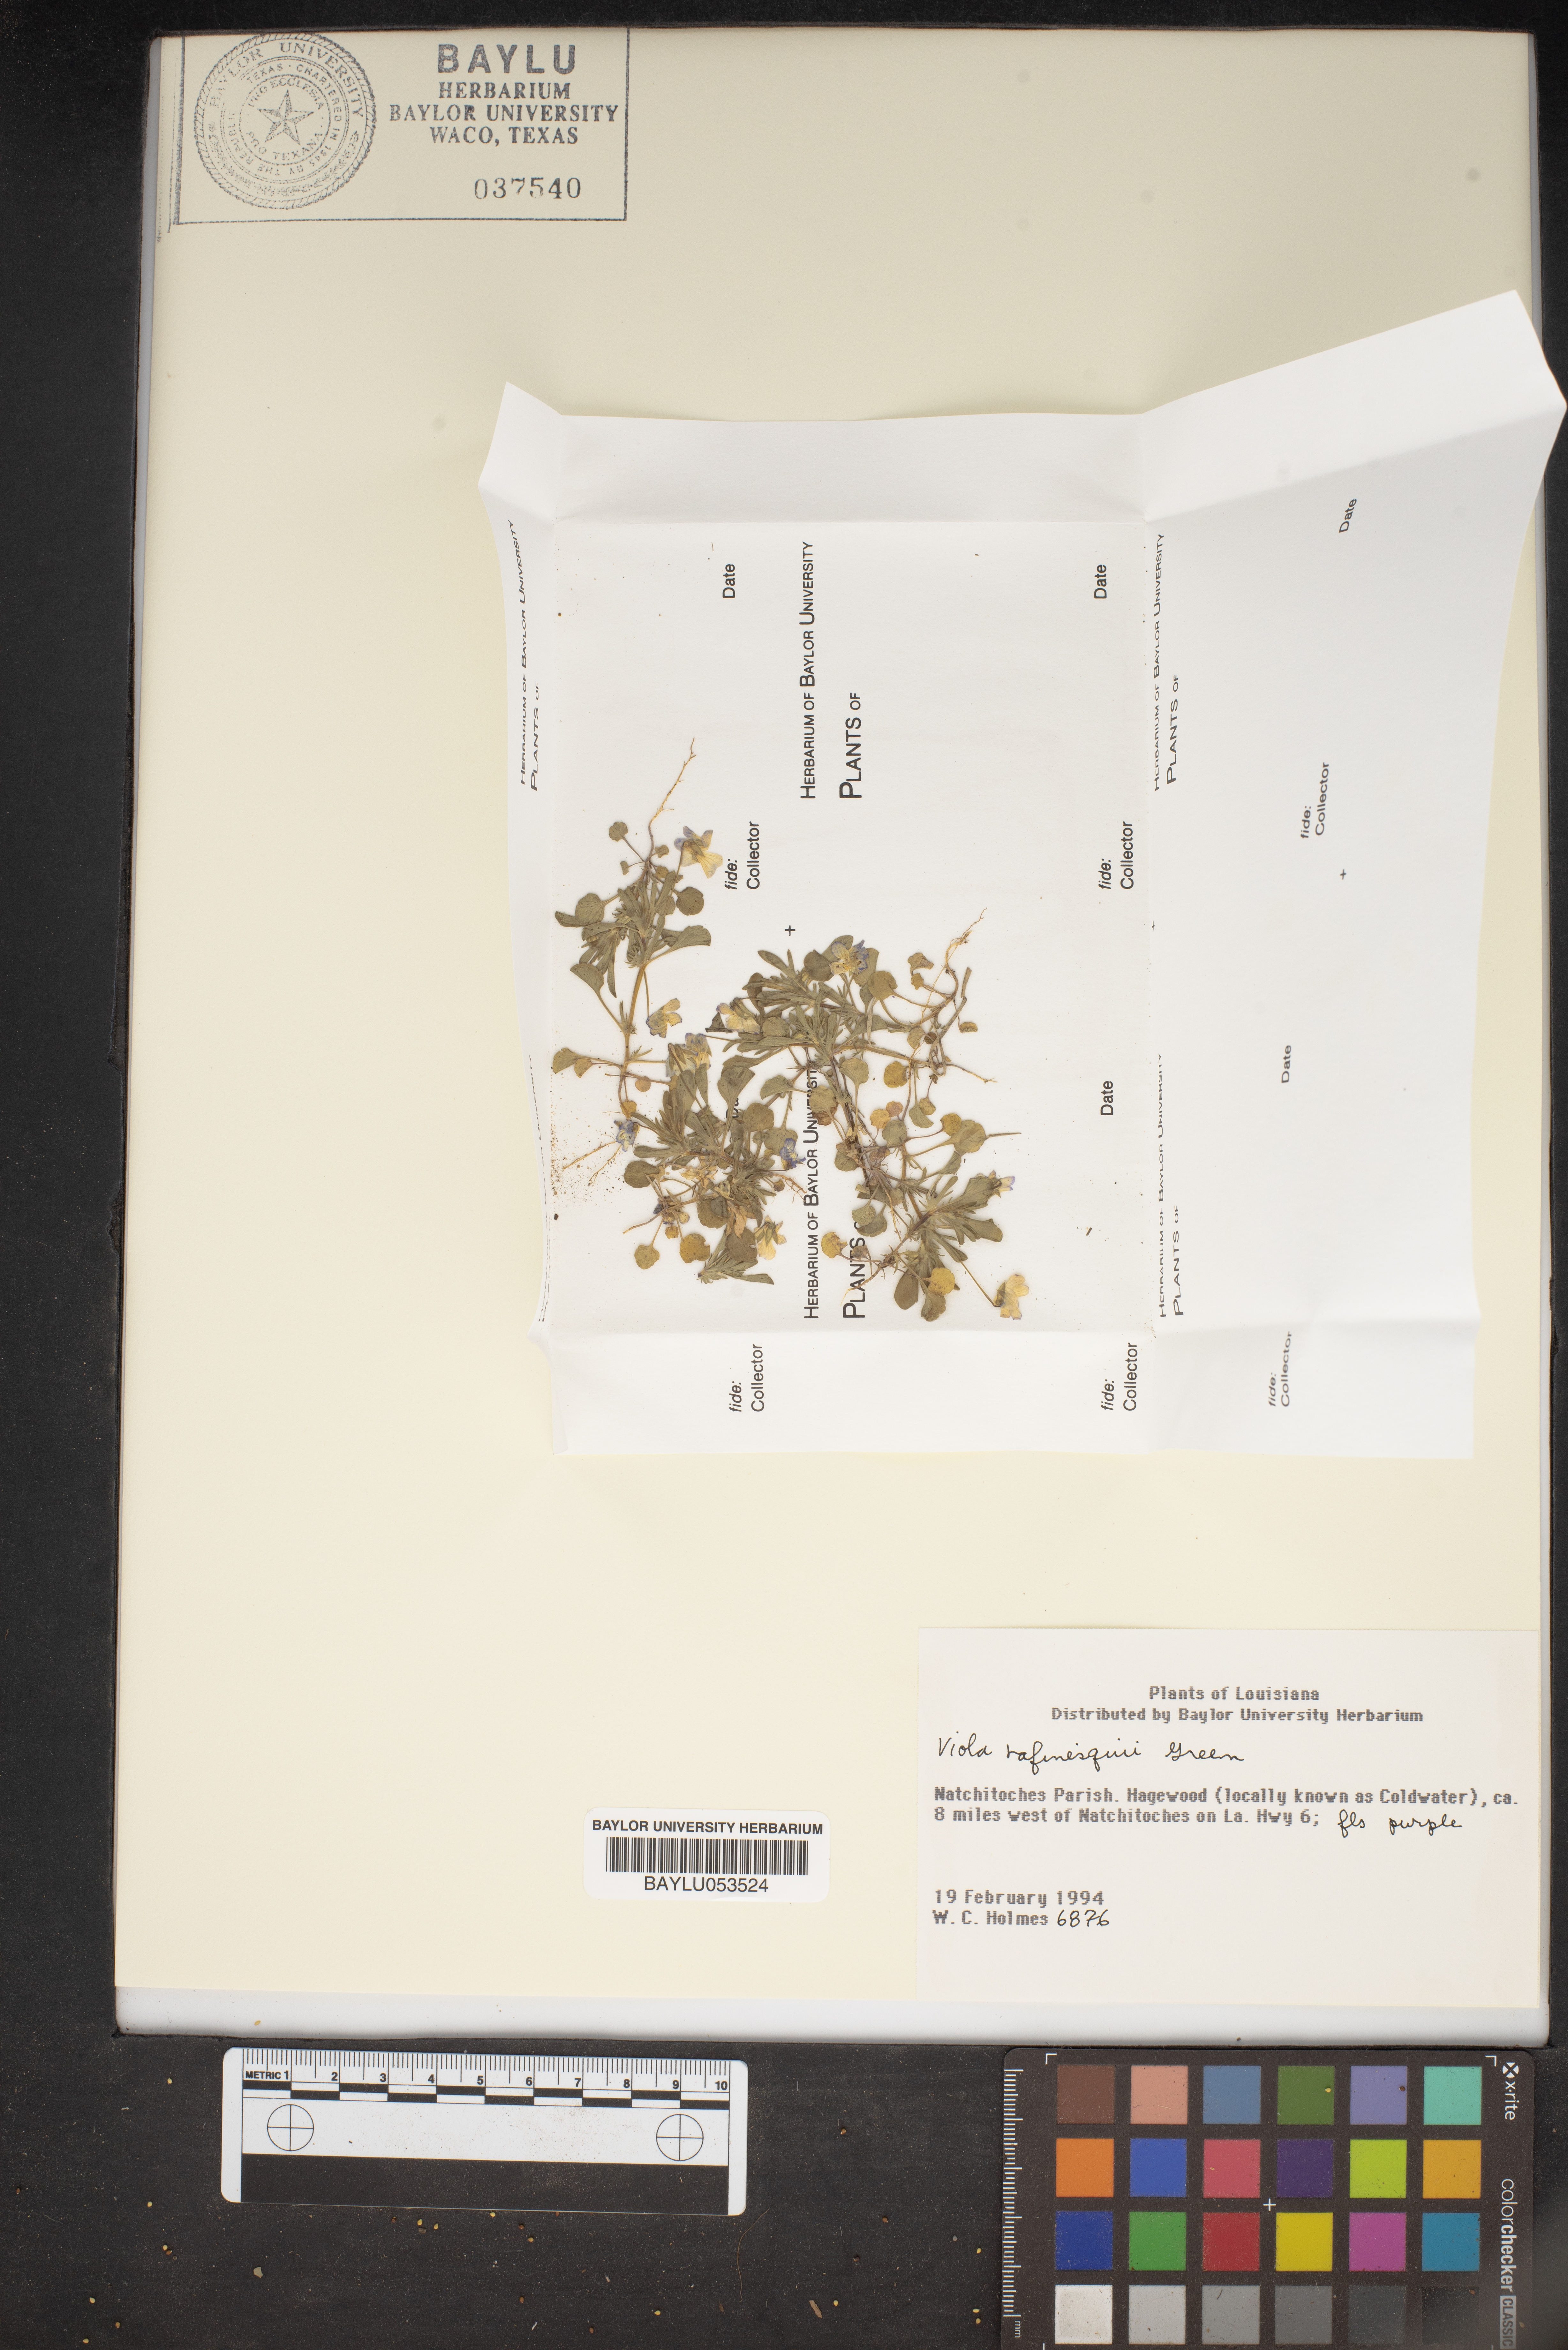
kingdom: Plantae
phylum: Tracheophyta
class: Magnoliopsida
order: Malpighiales
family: Violaceae
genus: Viola
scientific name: Viola rafinesquei
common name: American field pansy
